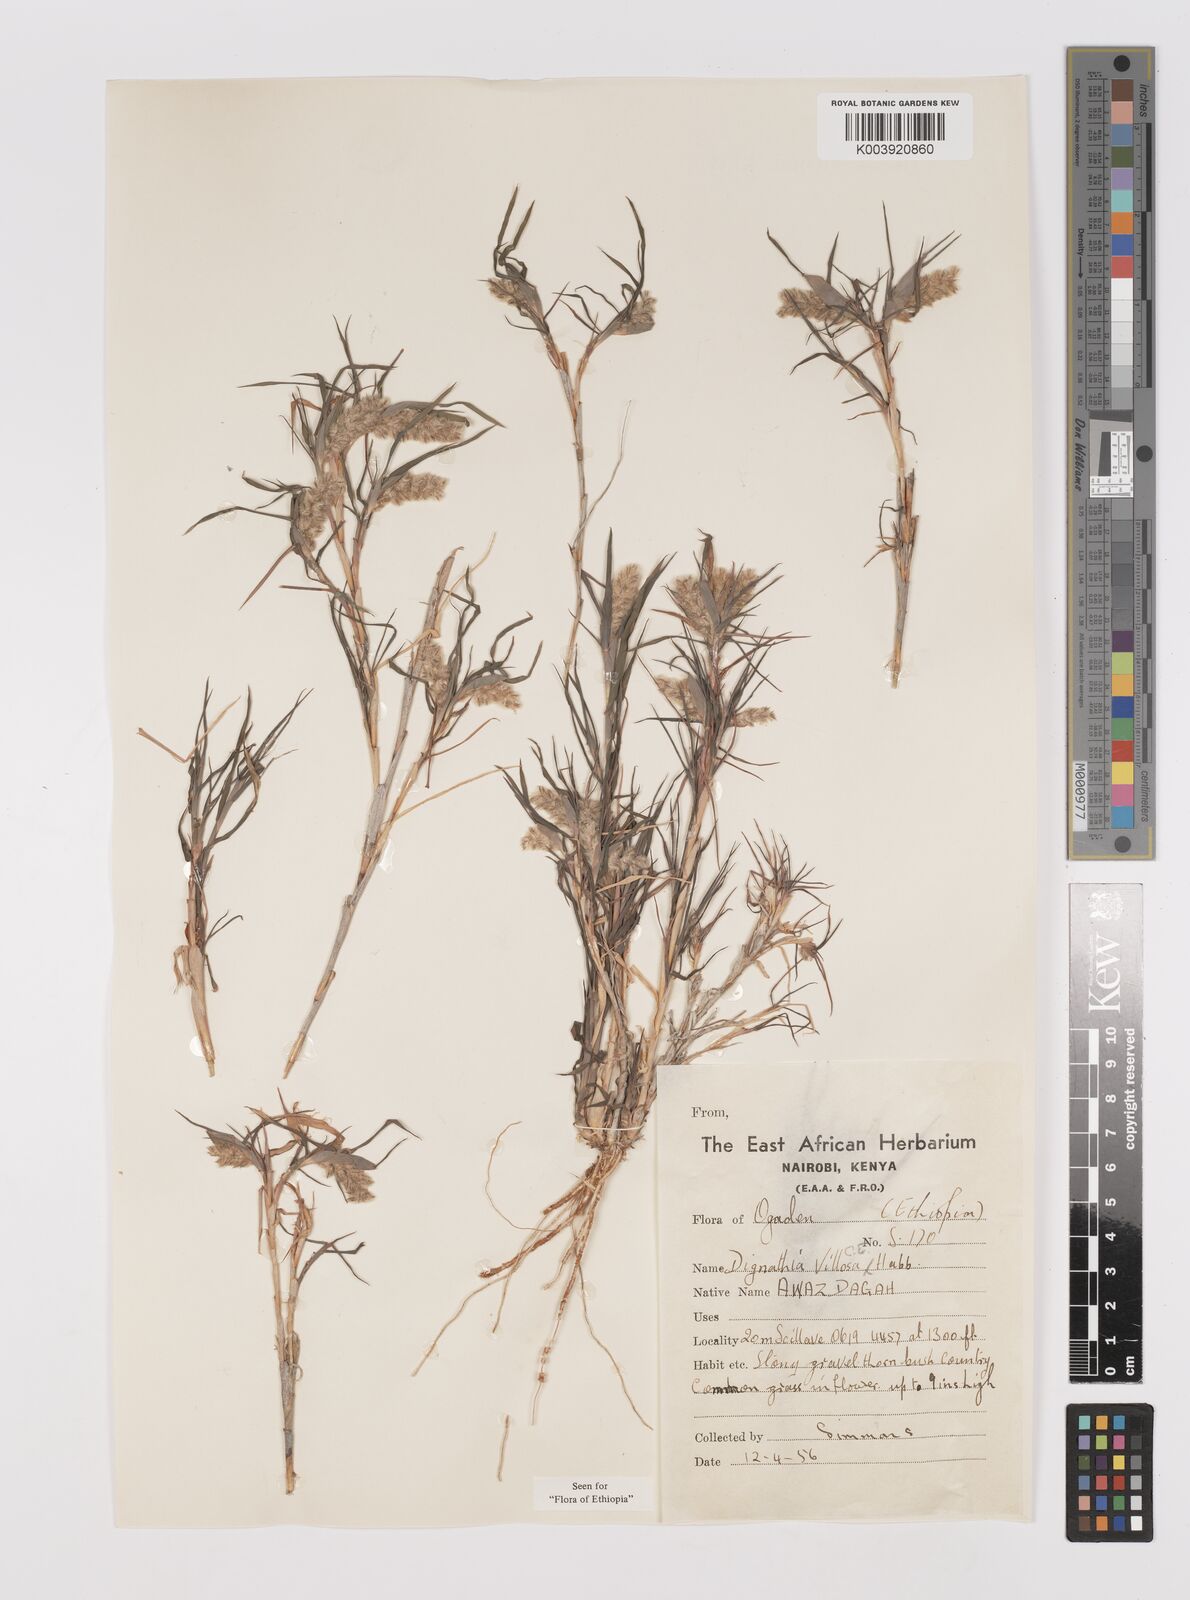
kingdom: Plantae
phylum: Tracheophyta
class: Liliopsida
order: Poales
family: Poaceae
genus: Dignathia
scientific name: Dignathia villosa
